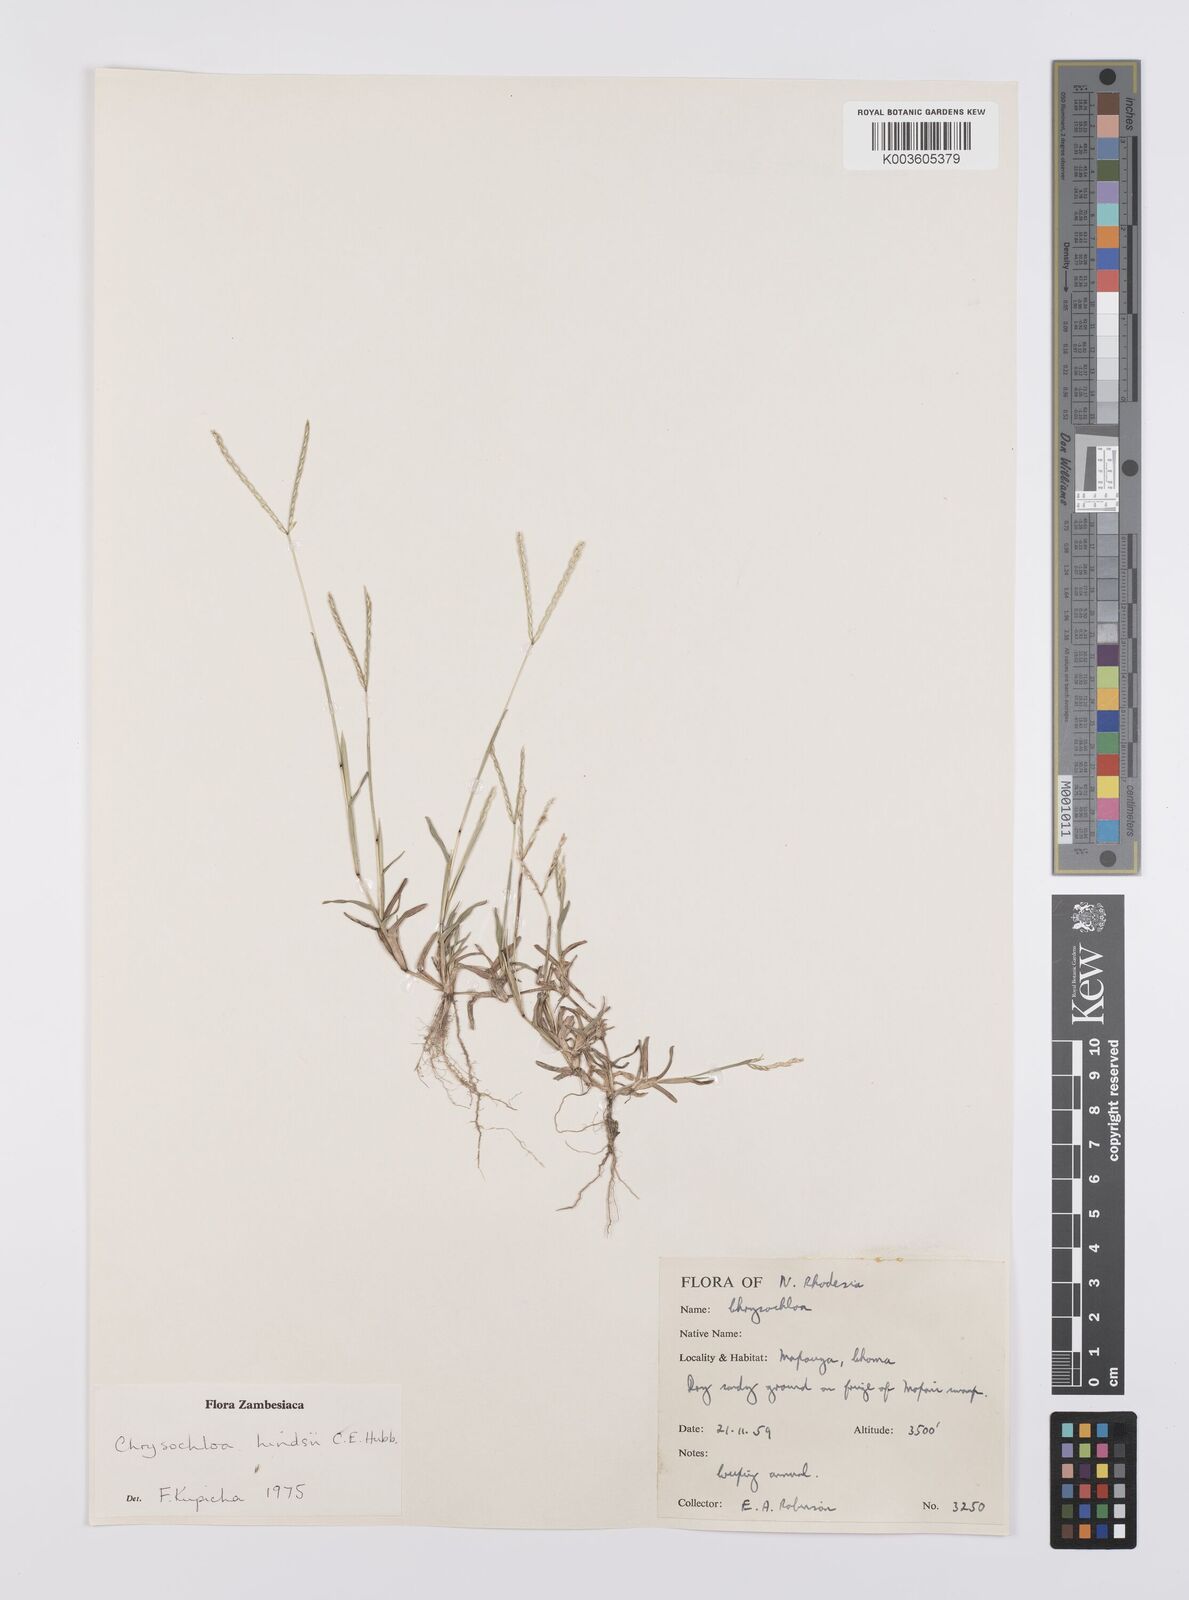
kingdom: Plantae
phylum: Tracheophyta
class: Liliopsida
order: Poales
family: Poaceae
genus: Chrysochloa
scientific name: Chrysochloa hindsii
